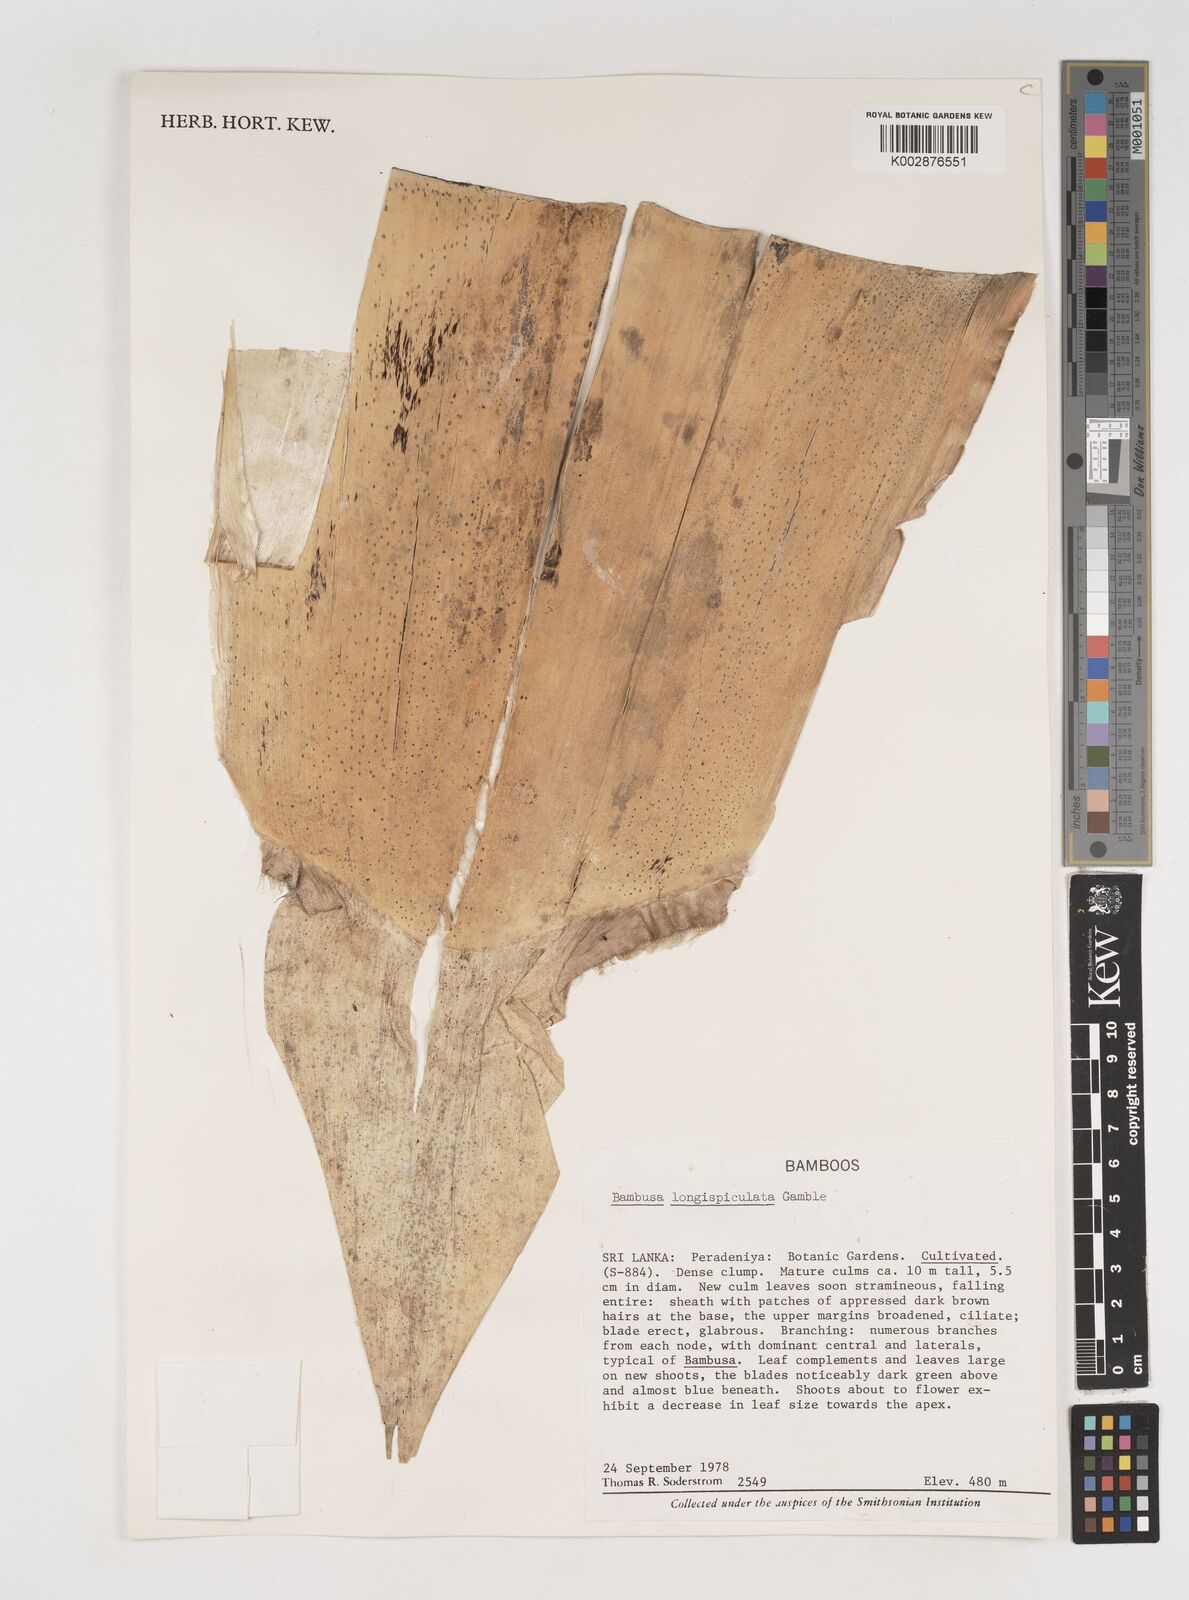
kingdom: Plantae
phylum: Tracheophyta
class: Liliopsida
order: Poales
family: Poaceae
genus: Bambusa
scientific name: Bambusa longispiculata
